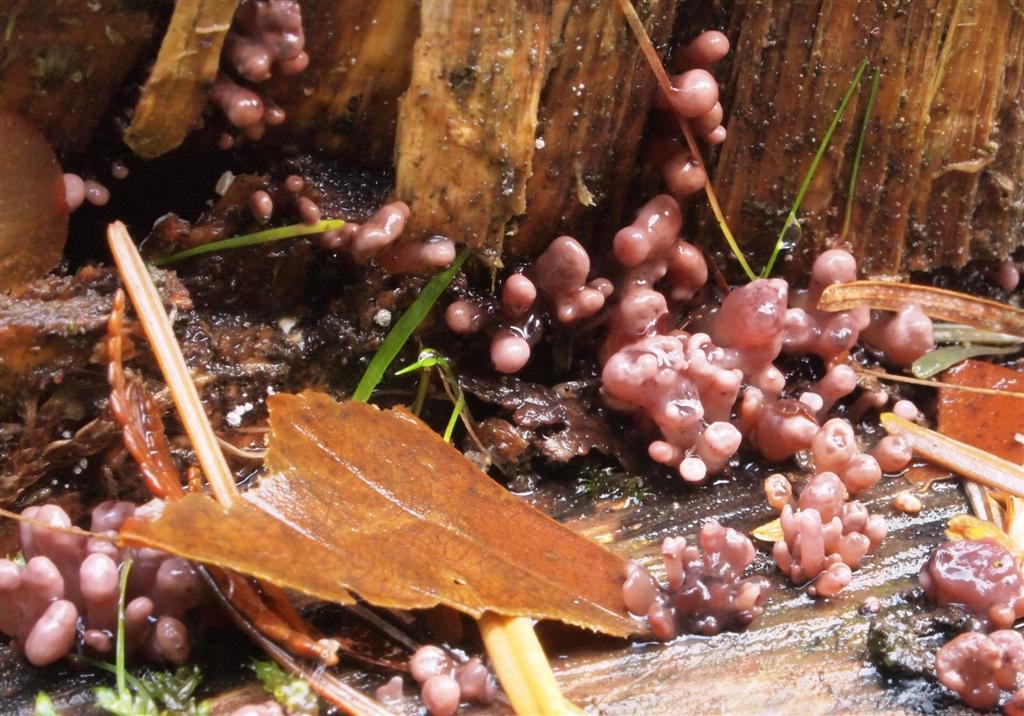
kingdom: Fungi
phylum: Ascomycota
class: Leotiomycetes
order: Helotiales
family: Gelatinodiscaceae
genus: Ascocoryne
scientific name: Ascocoryne sarcoides
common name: rødlilla sejskive
